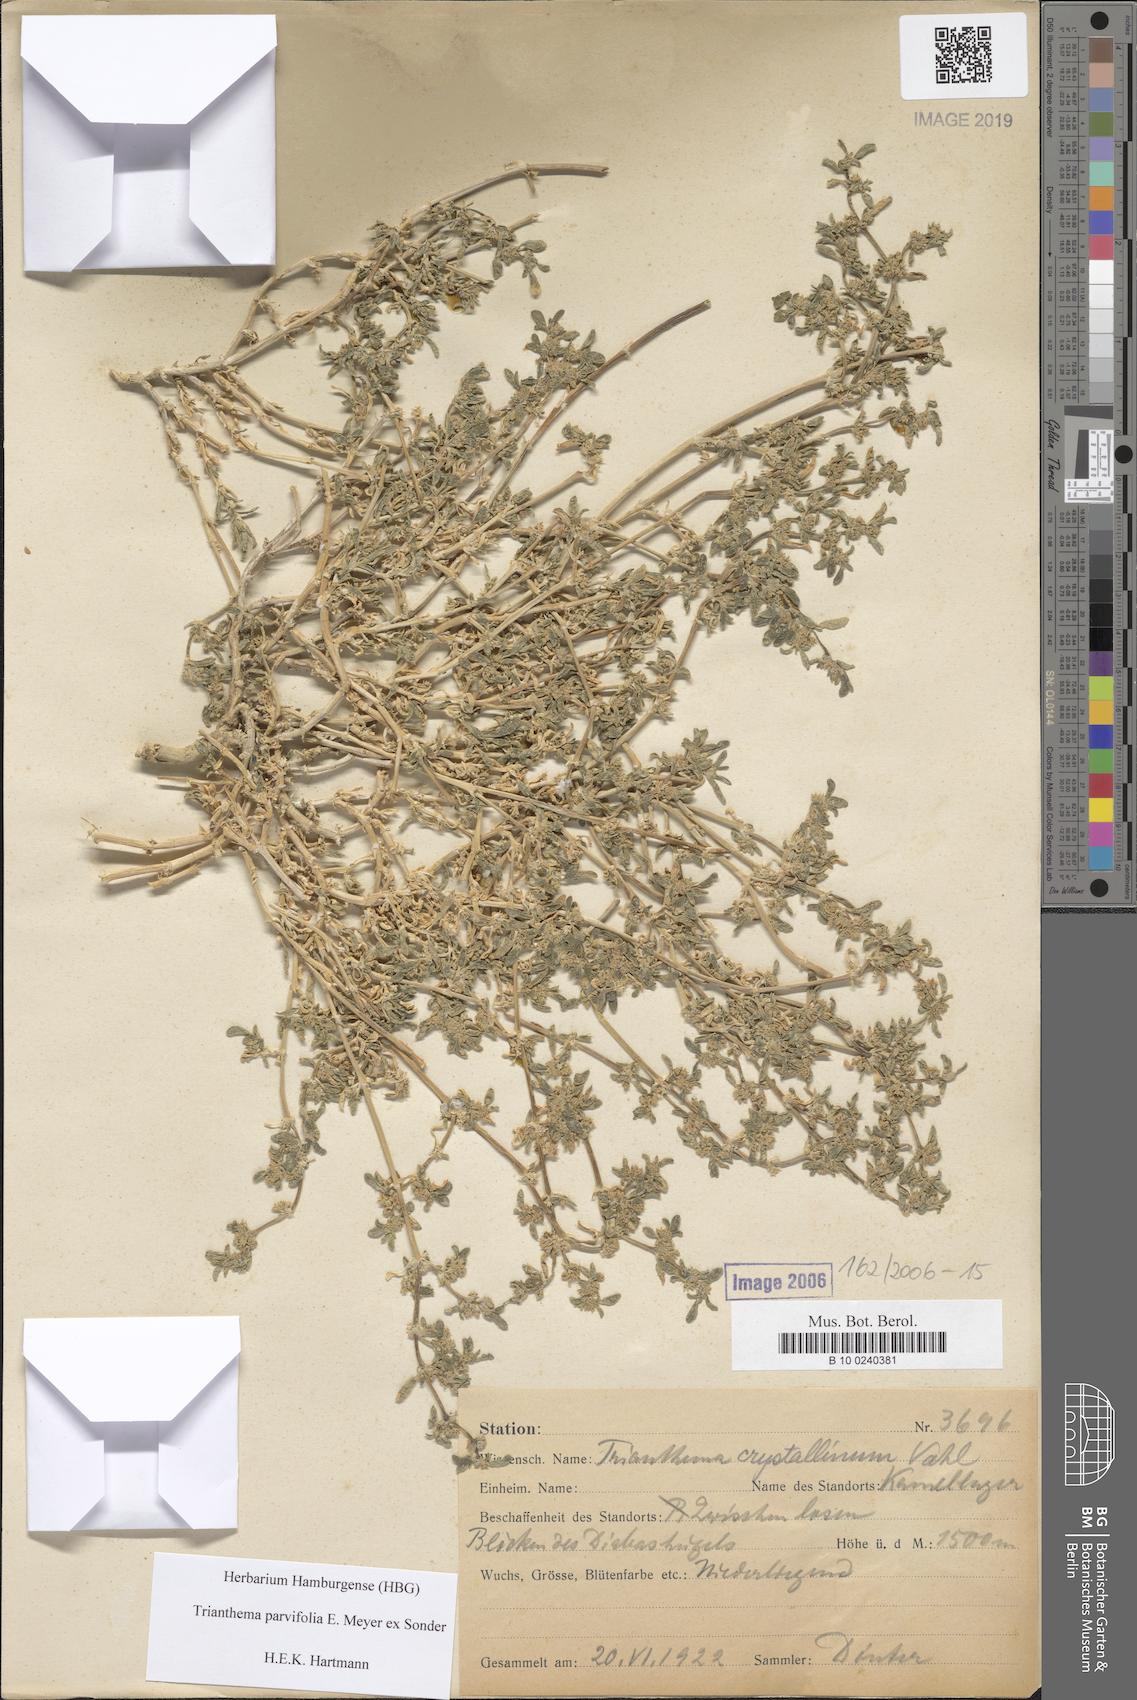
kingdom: Plantae
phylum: Tracheophyta
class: Magnoliopsida
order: Caryophyllales
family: Aizoaceae
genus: Trianthema
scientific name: Trianthema crystallinum
